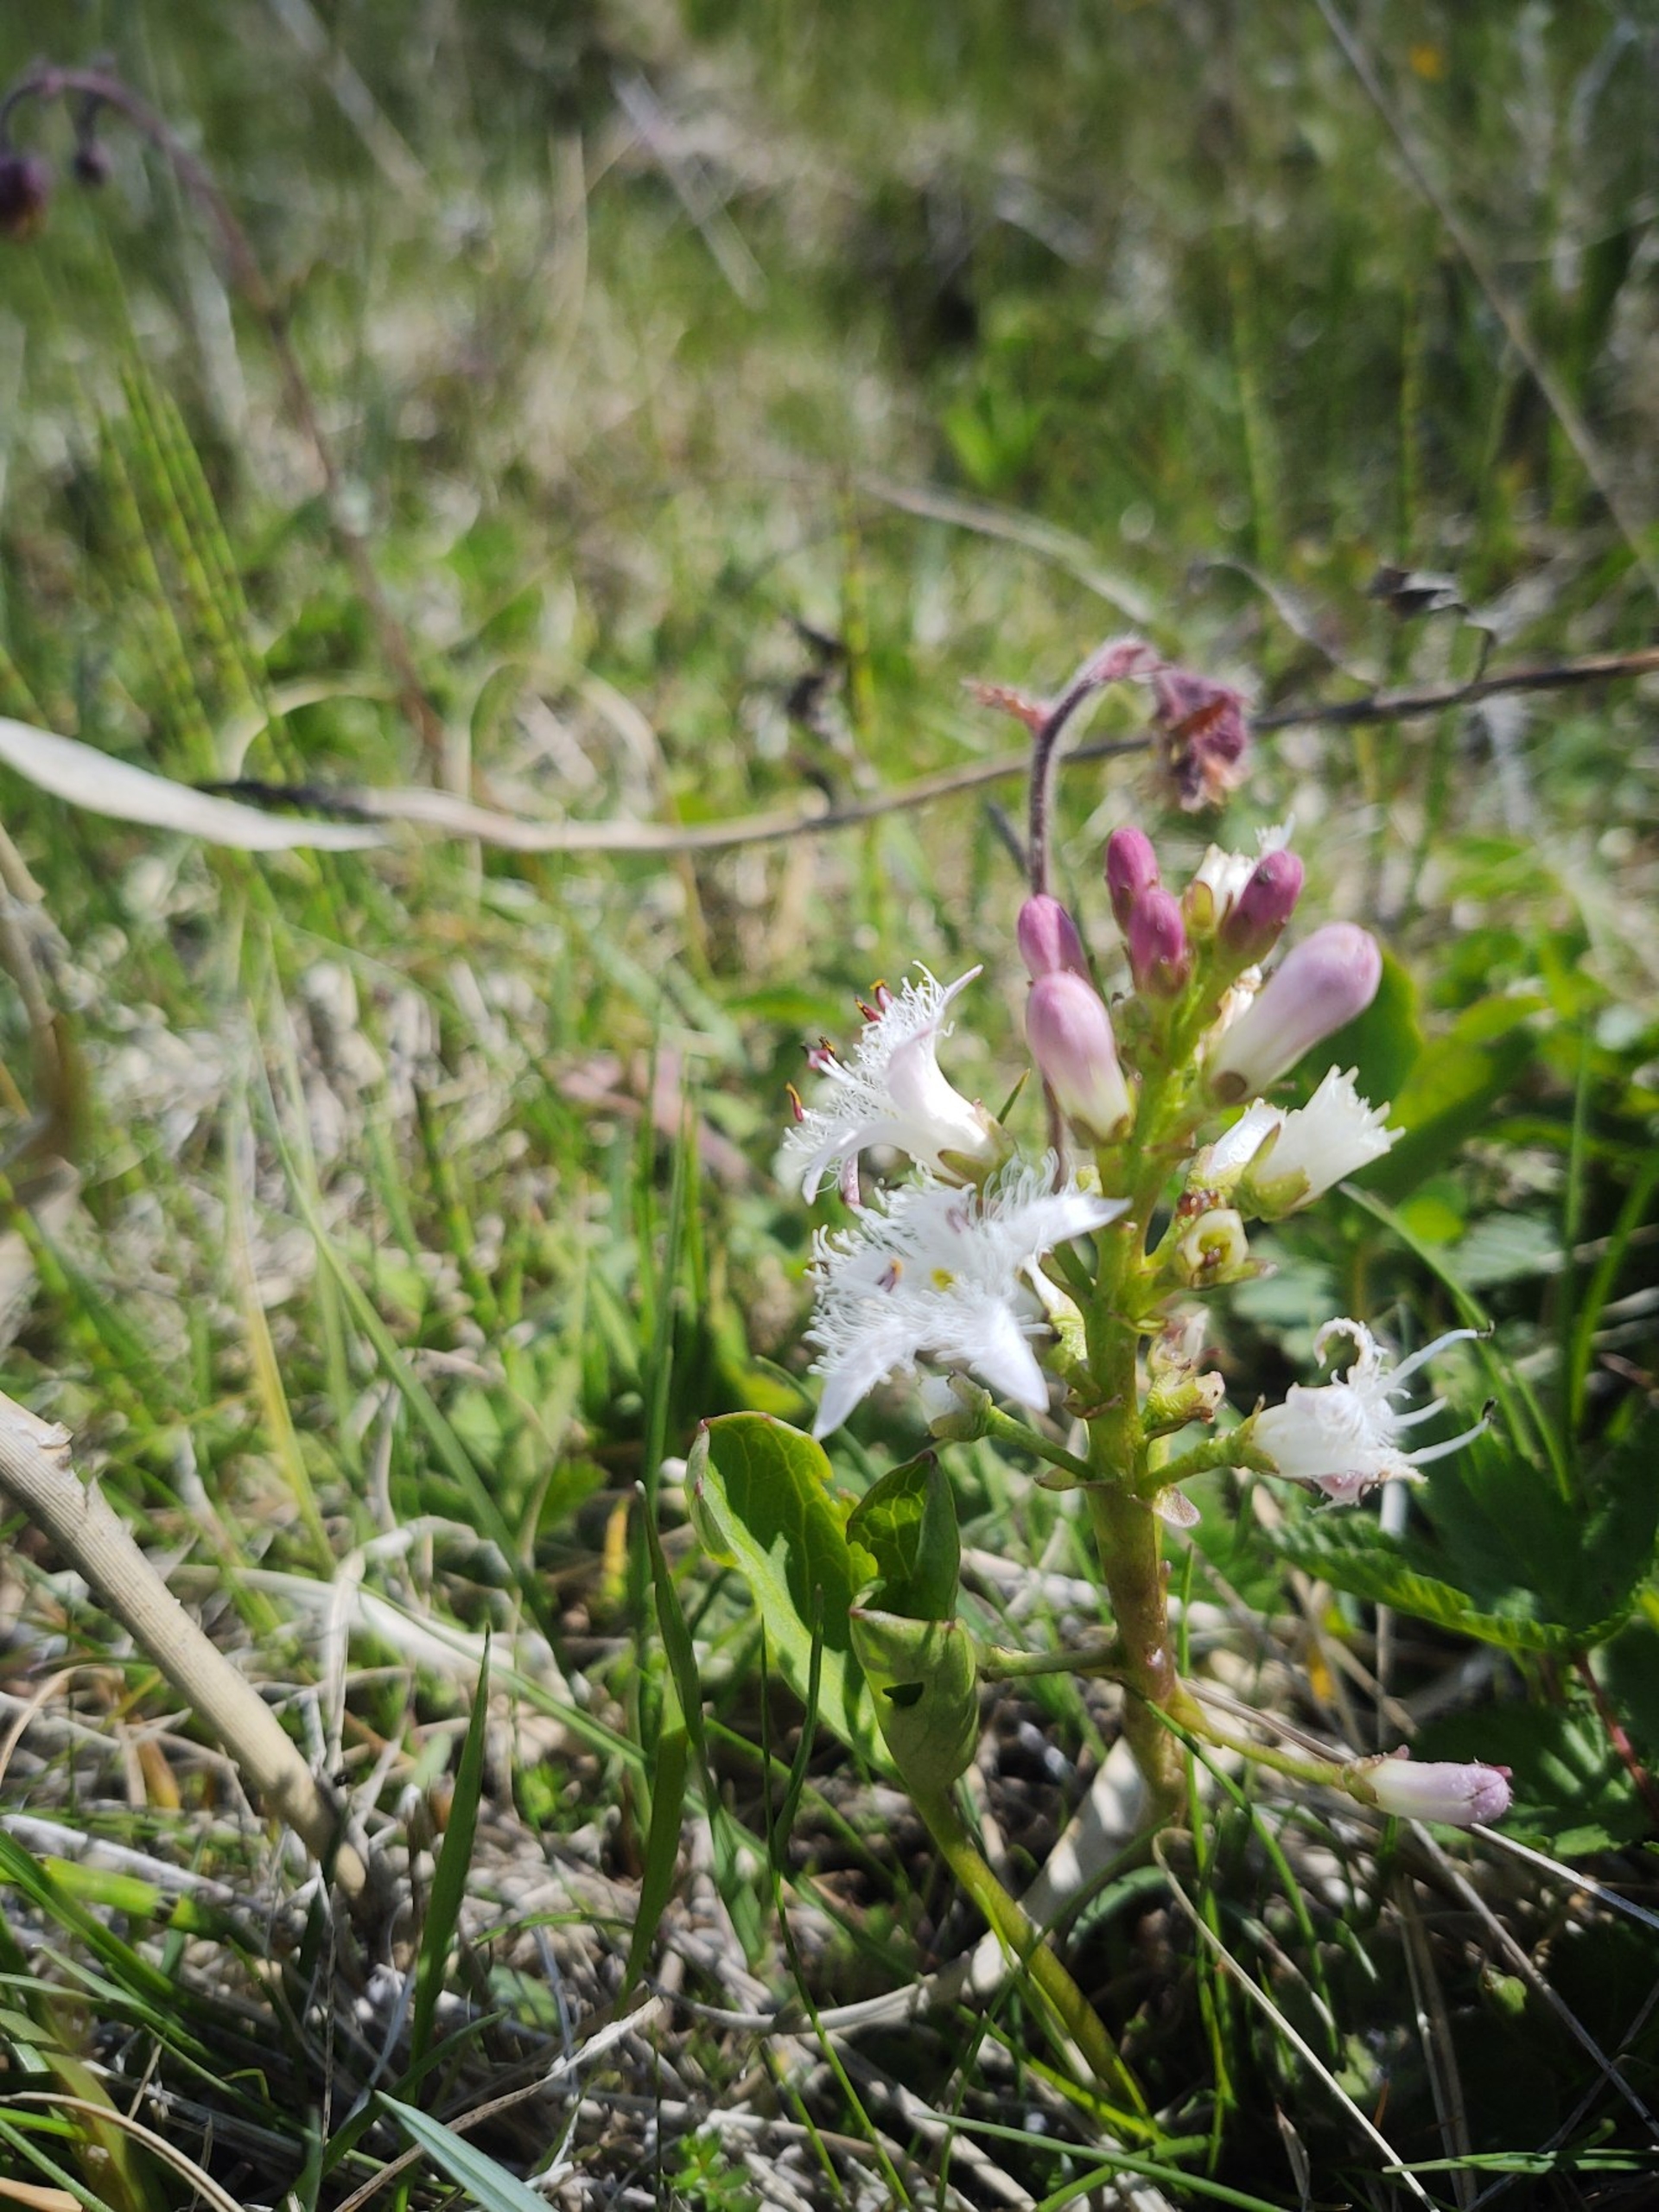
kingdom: Plantae
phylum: Tracheophyta
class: Magnoliopsida
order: Asterales
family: Menyanthaceae
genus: Menyanthes
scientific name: Menyanthes trifoliata
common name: Bukkeblad
